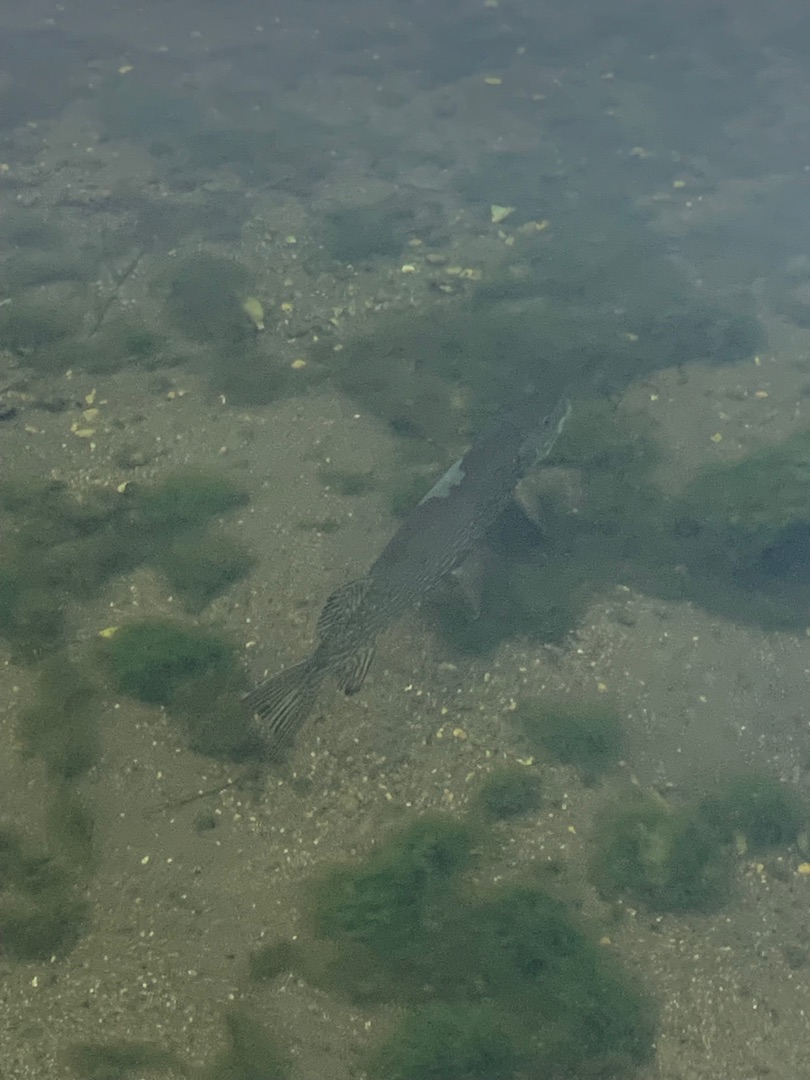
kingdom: Animalia
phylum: Chordata
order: Esociformes
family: Esocidae
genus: Esox
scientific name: Esox lucius
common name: Gedde
